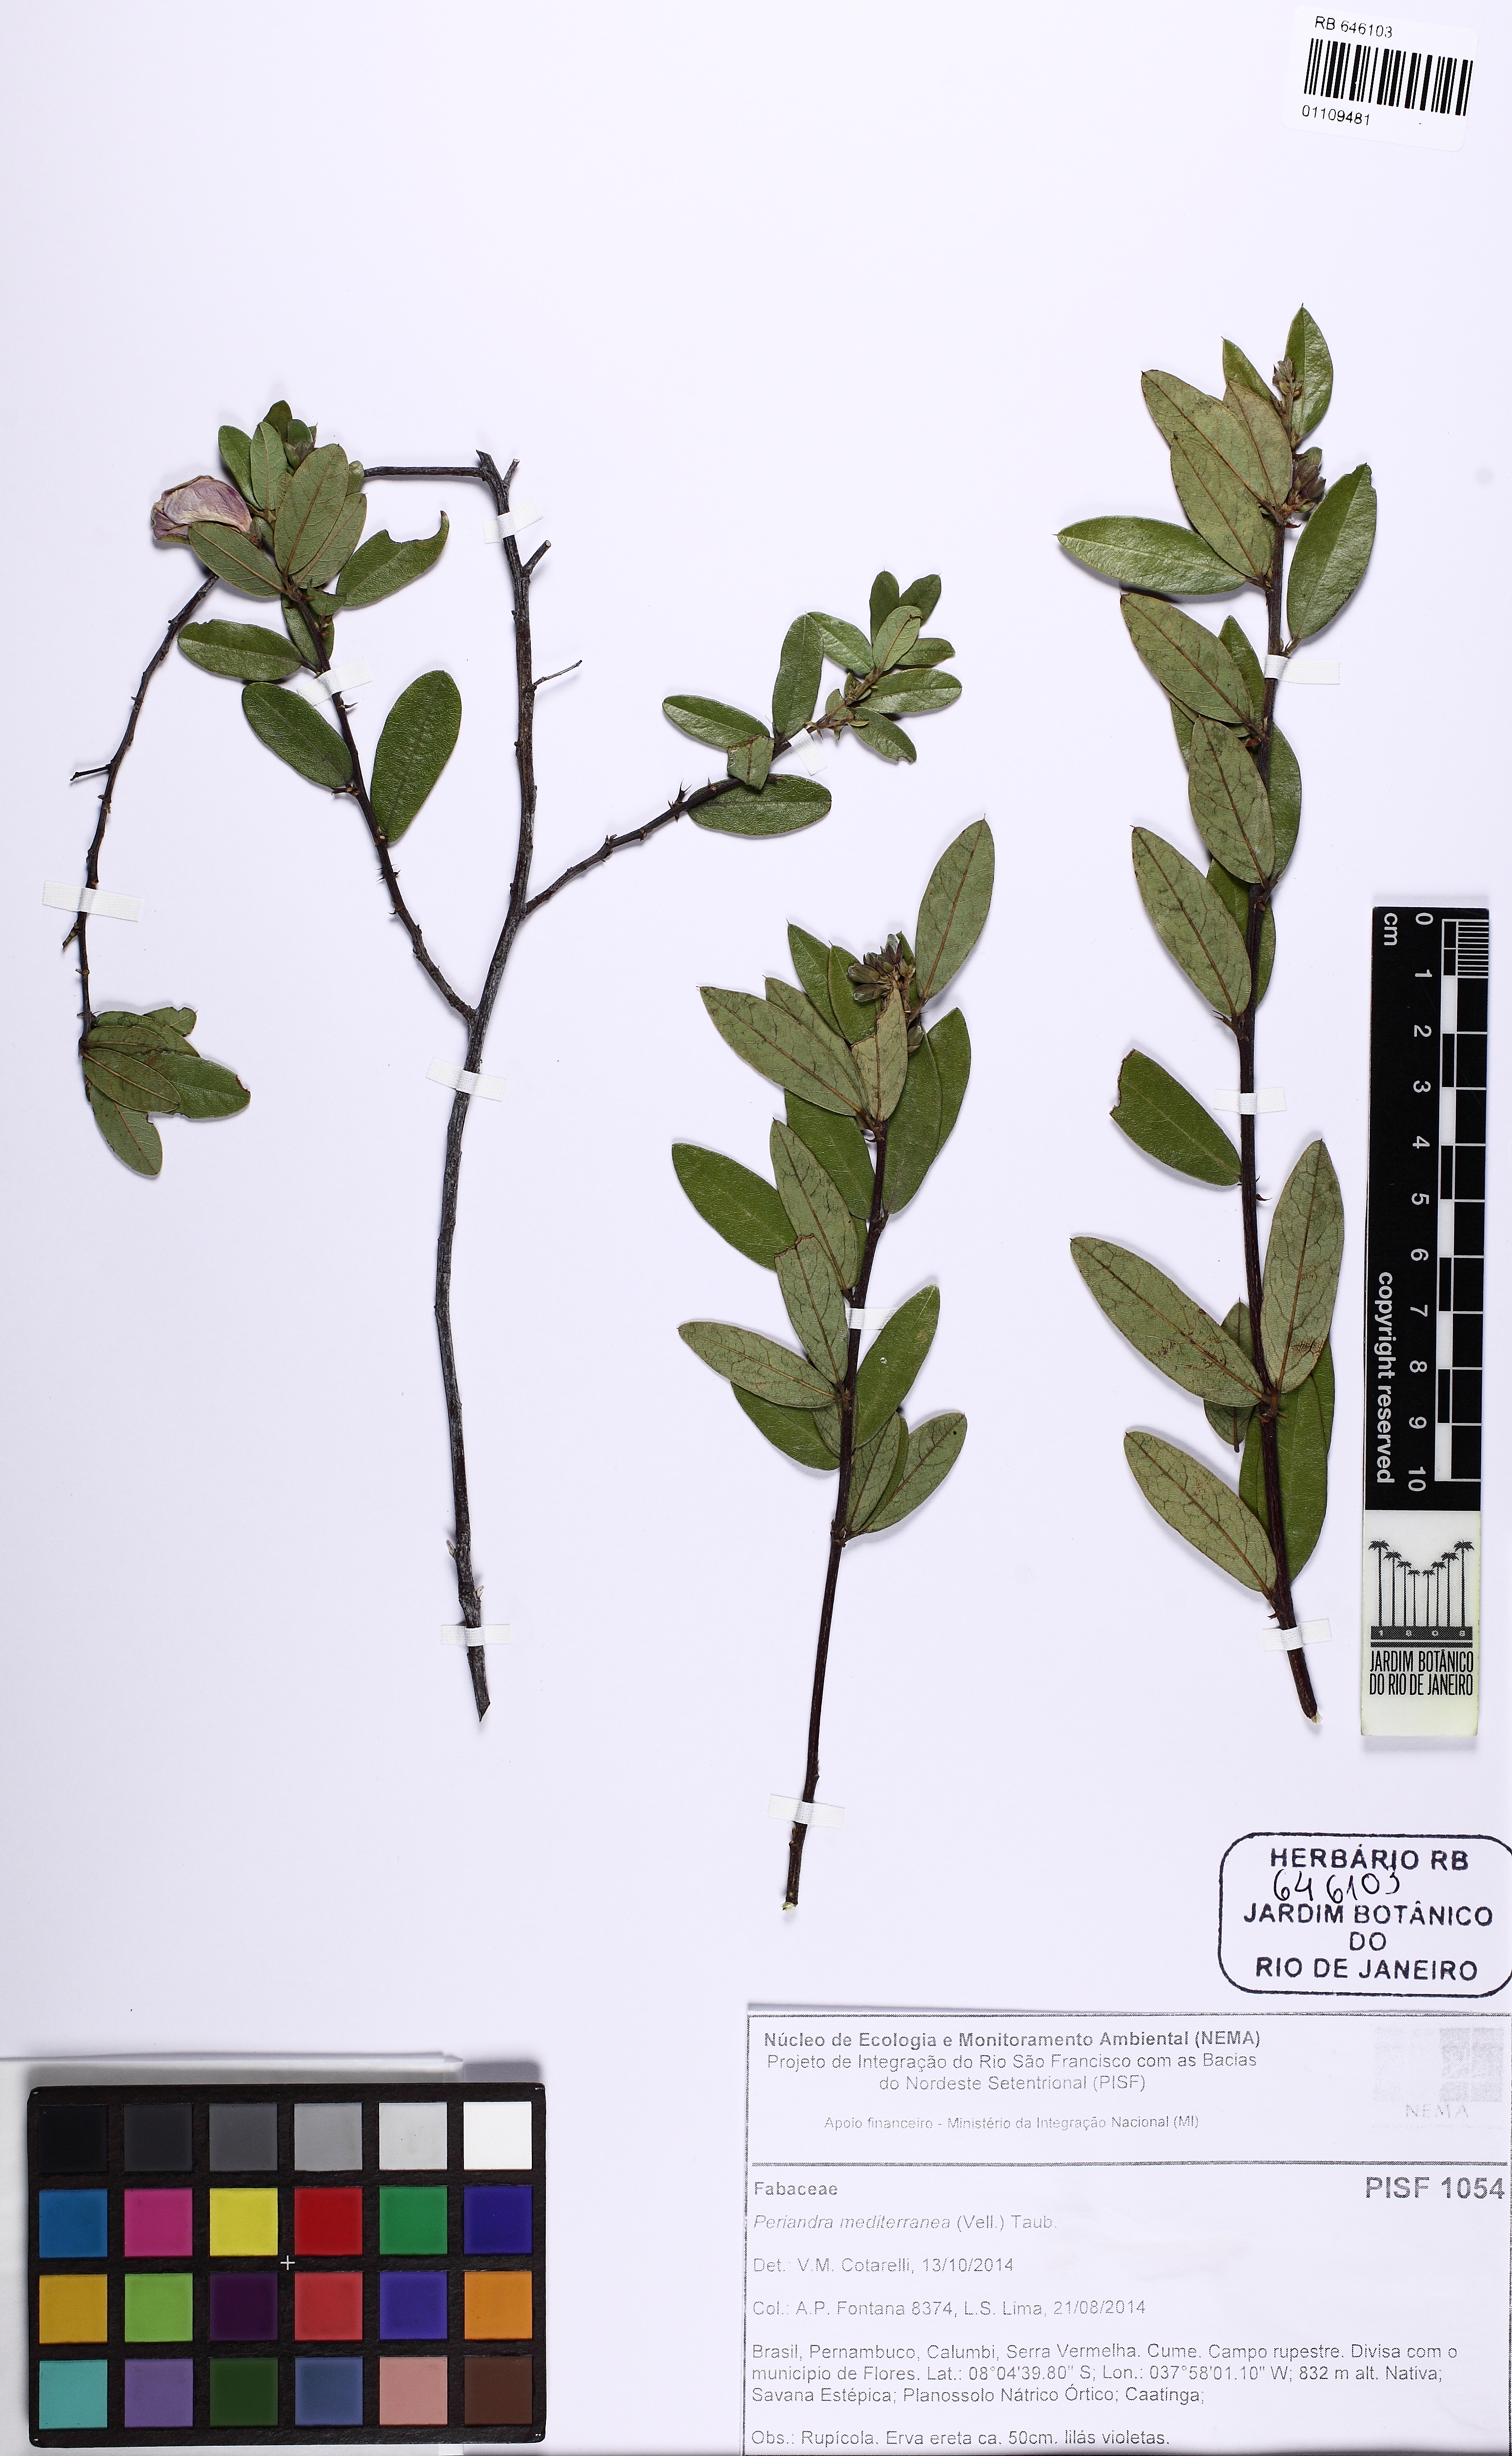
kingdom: Plantae
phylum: Tracheophyta
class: Magnoliopsida
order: Fabales
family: Fabaceae
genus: Periandra
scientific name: Periandra mediterranea
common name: Brazilian licorice
